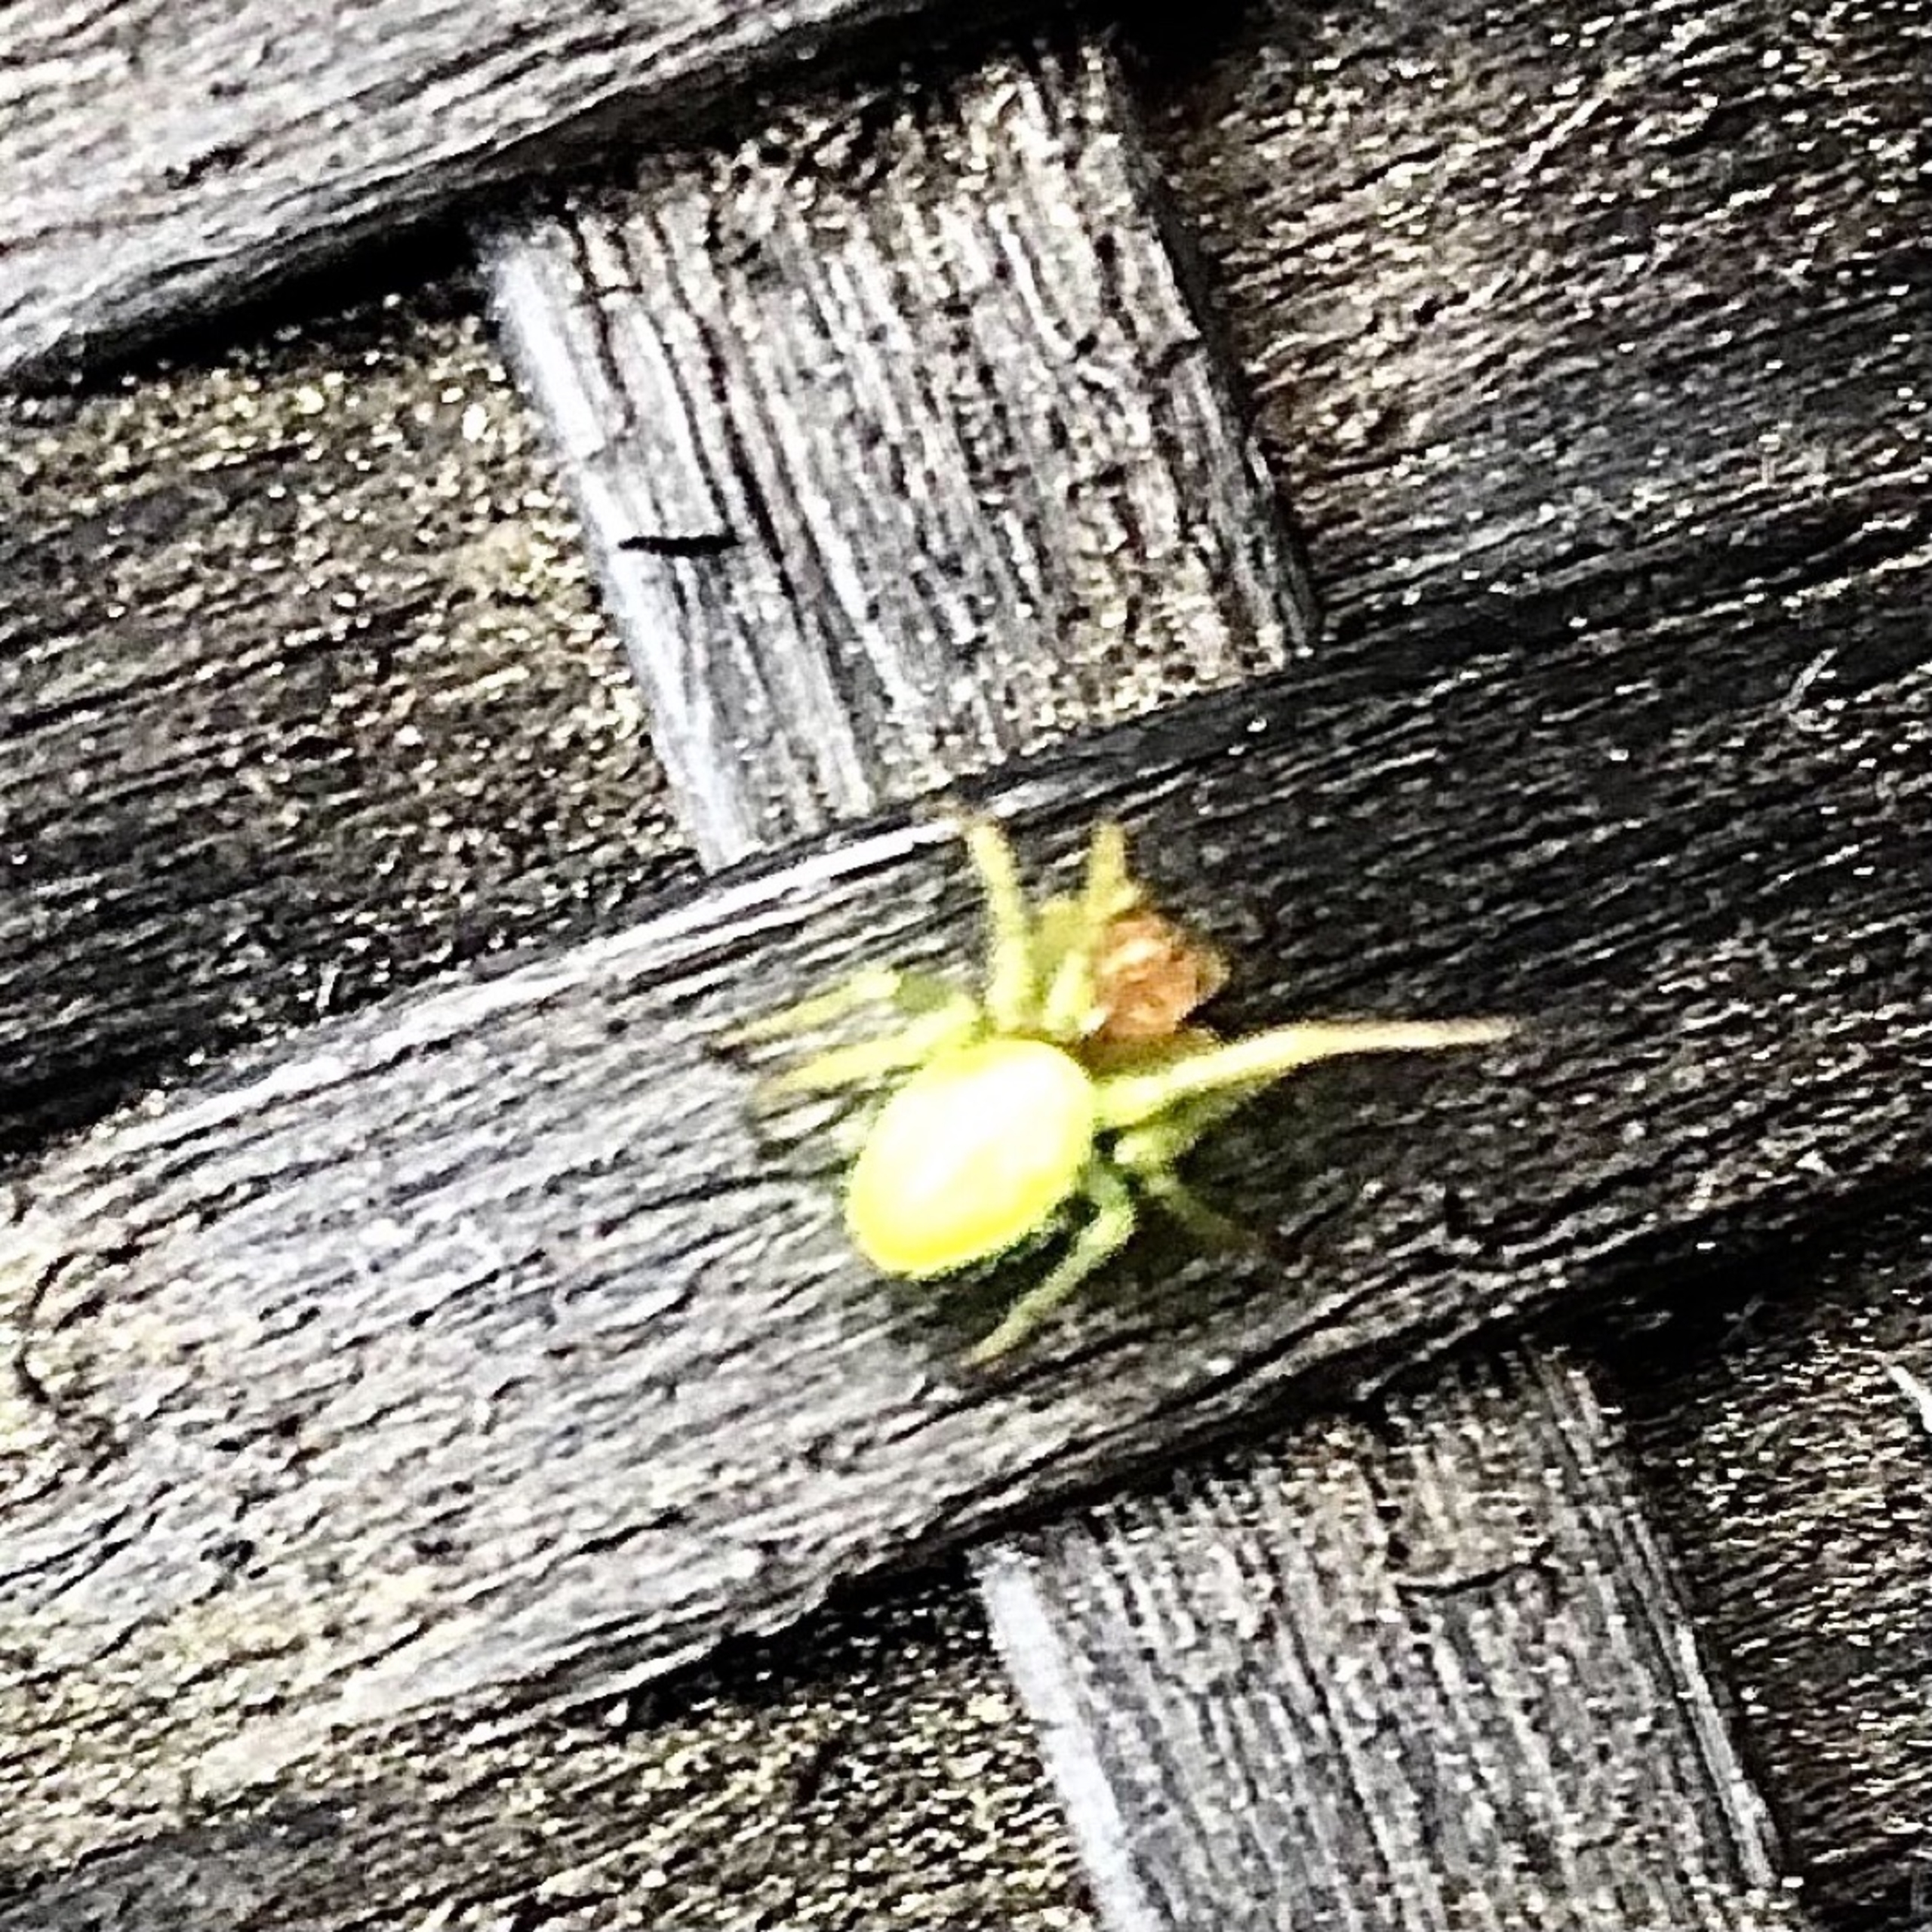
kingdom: Animalia
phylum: Arthropoda
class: Arachnida
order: Araneae
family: Araneidae
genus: Araniella
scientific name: Araniella
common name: Agurkeedderkopslægten
